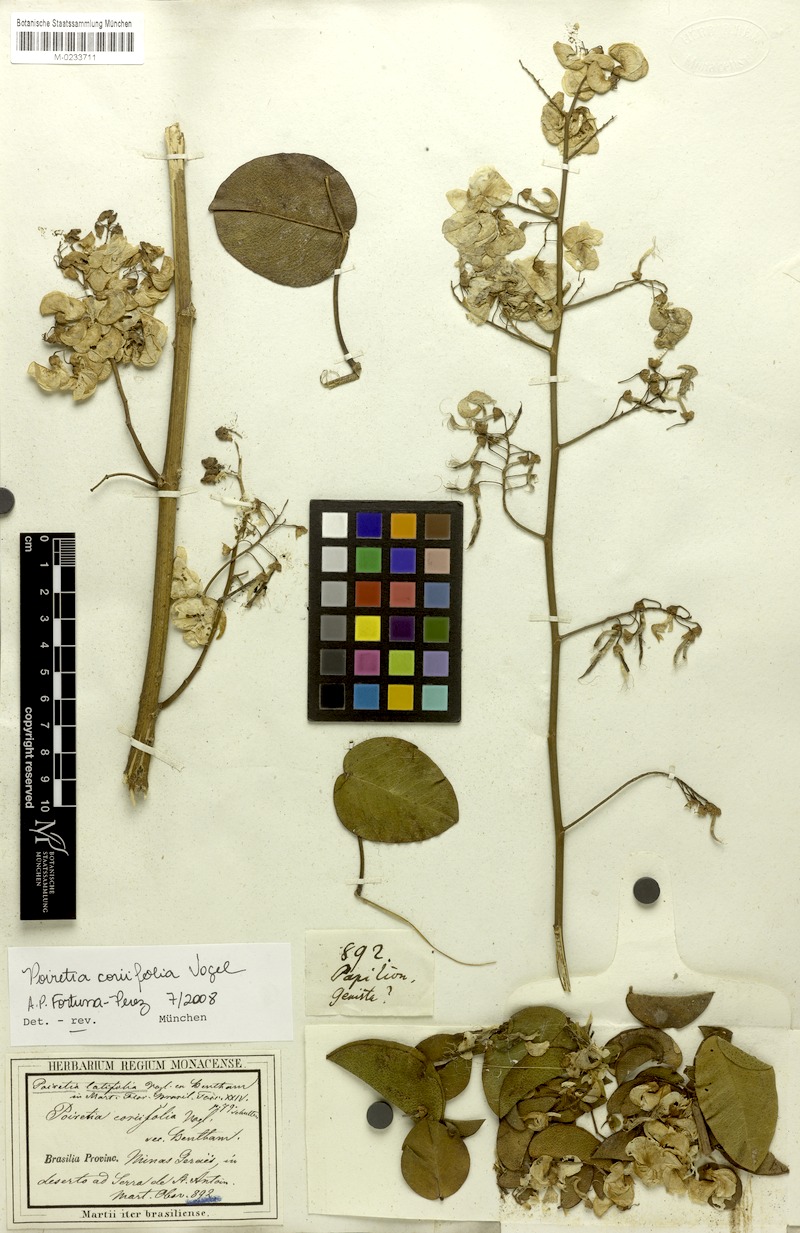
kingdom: Plantae
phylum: Tracheophyta
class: Magnoliopsida
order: Fabales
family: Fabaceae
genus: Poiretia
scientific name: Poiretia coriifolia
